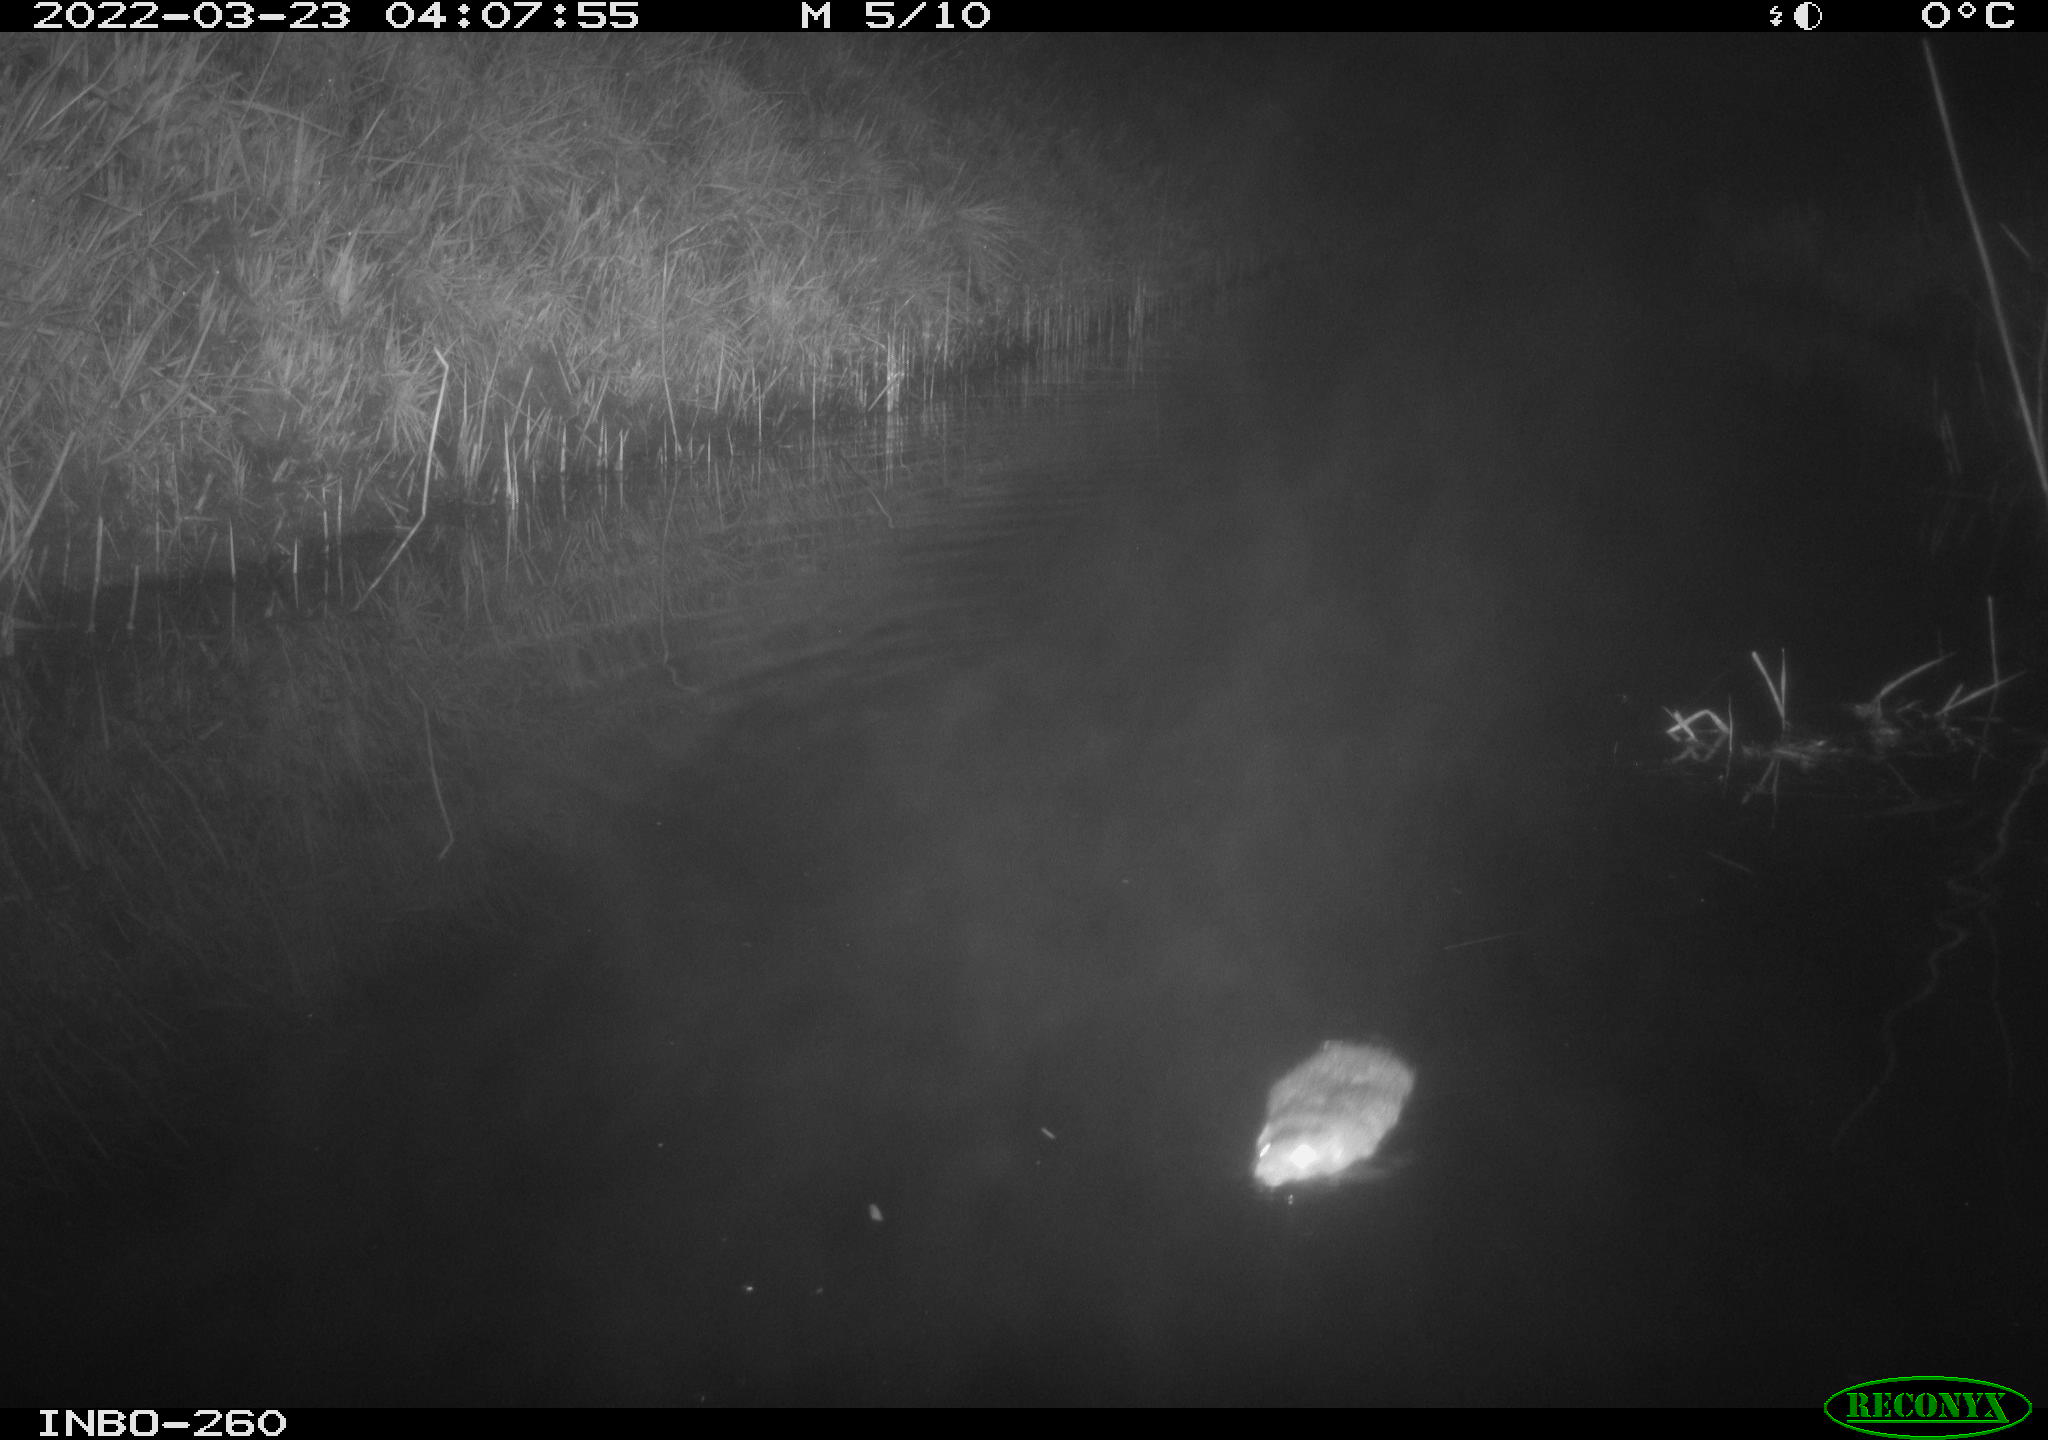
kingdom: Animalia
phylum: Chordata
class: Mammalia
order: Rodentia
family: Cricetidae
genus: Ondatra
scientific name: Ondatra zibethicus
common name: Muskrat
